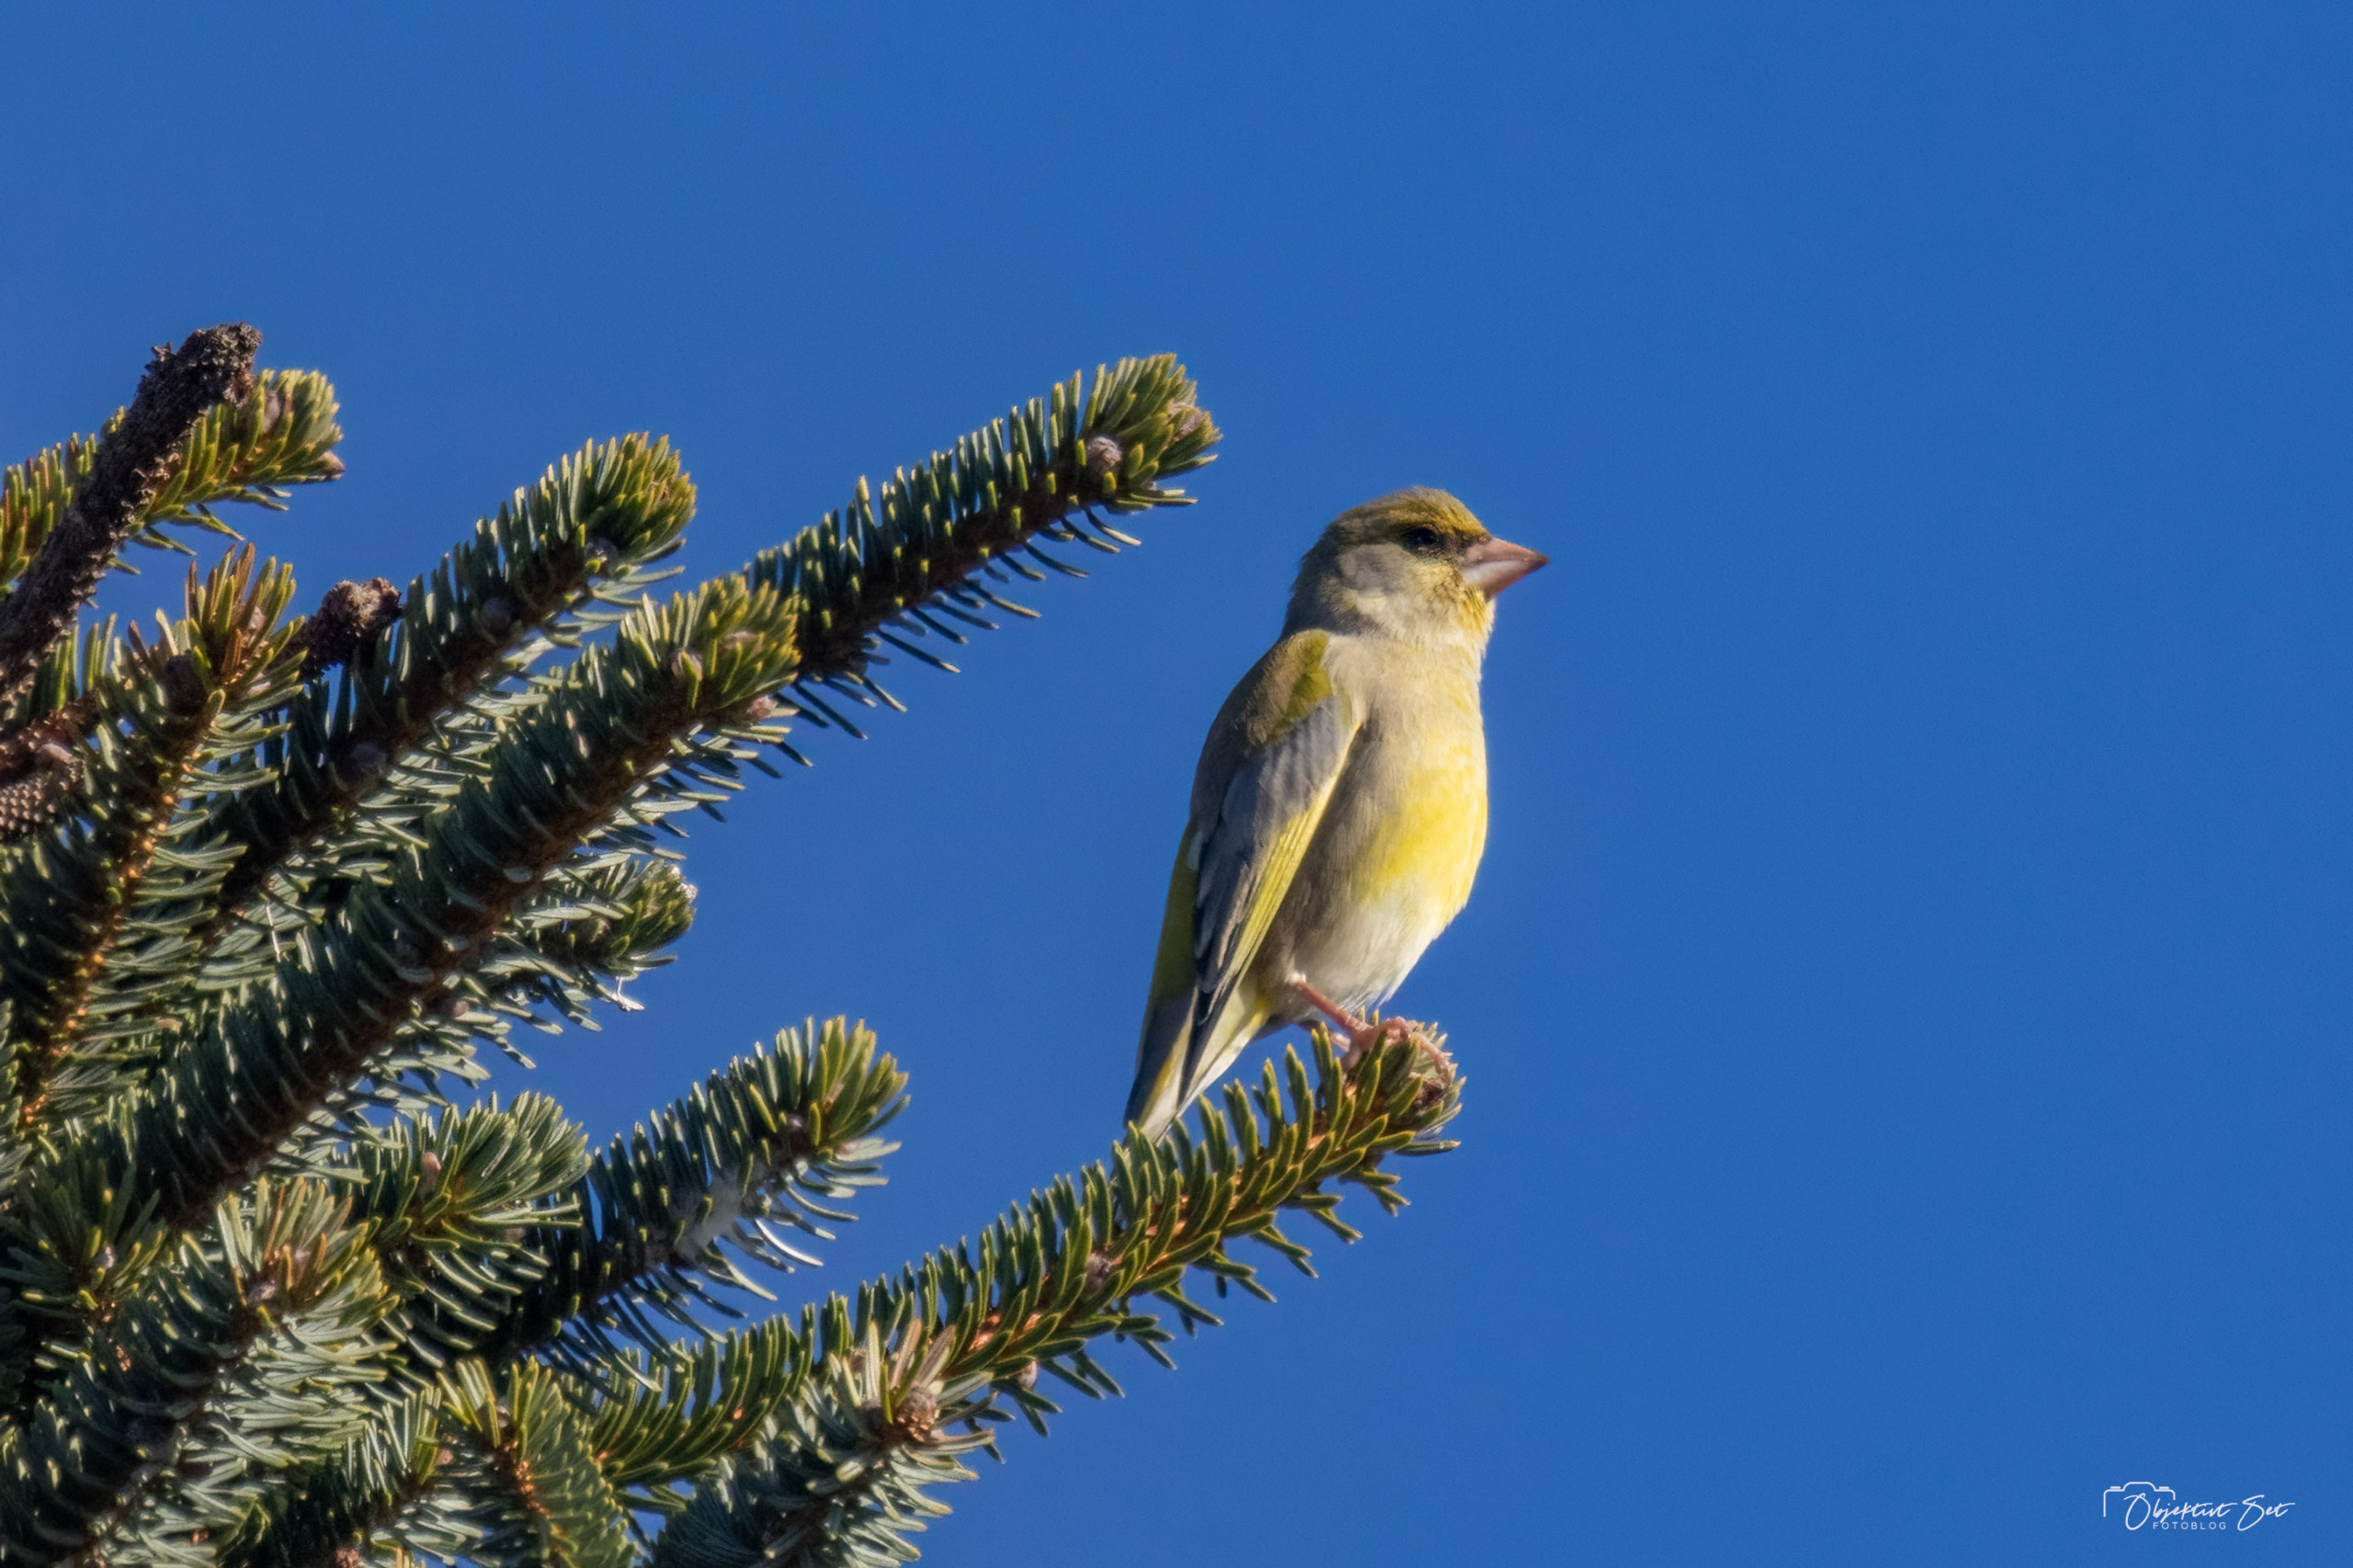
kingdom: Plantae
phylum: Tracheophyta
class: Liliopsida
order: Poales
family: Poaceae
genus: Chloris
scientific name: Chloris chloris
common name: Grønirisk
